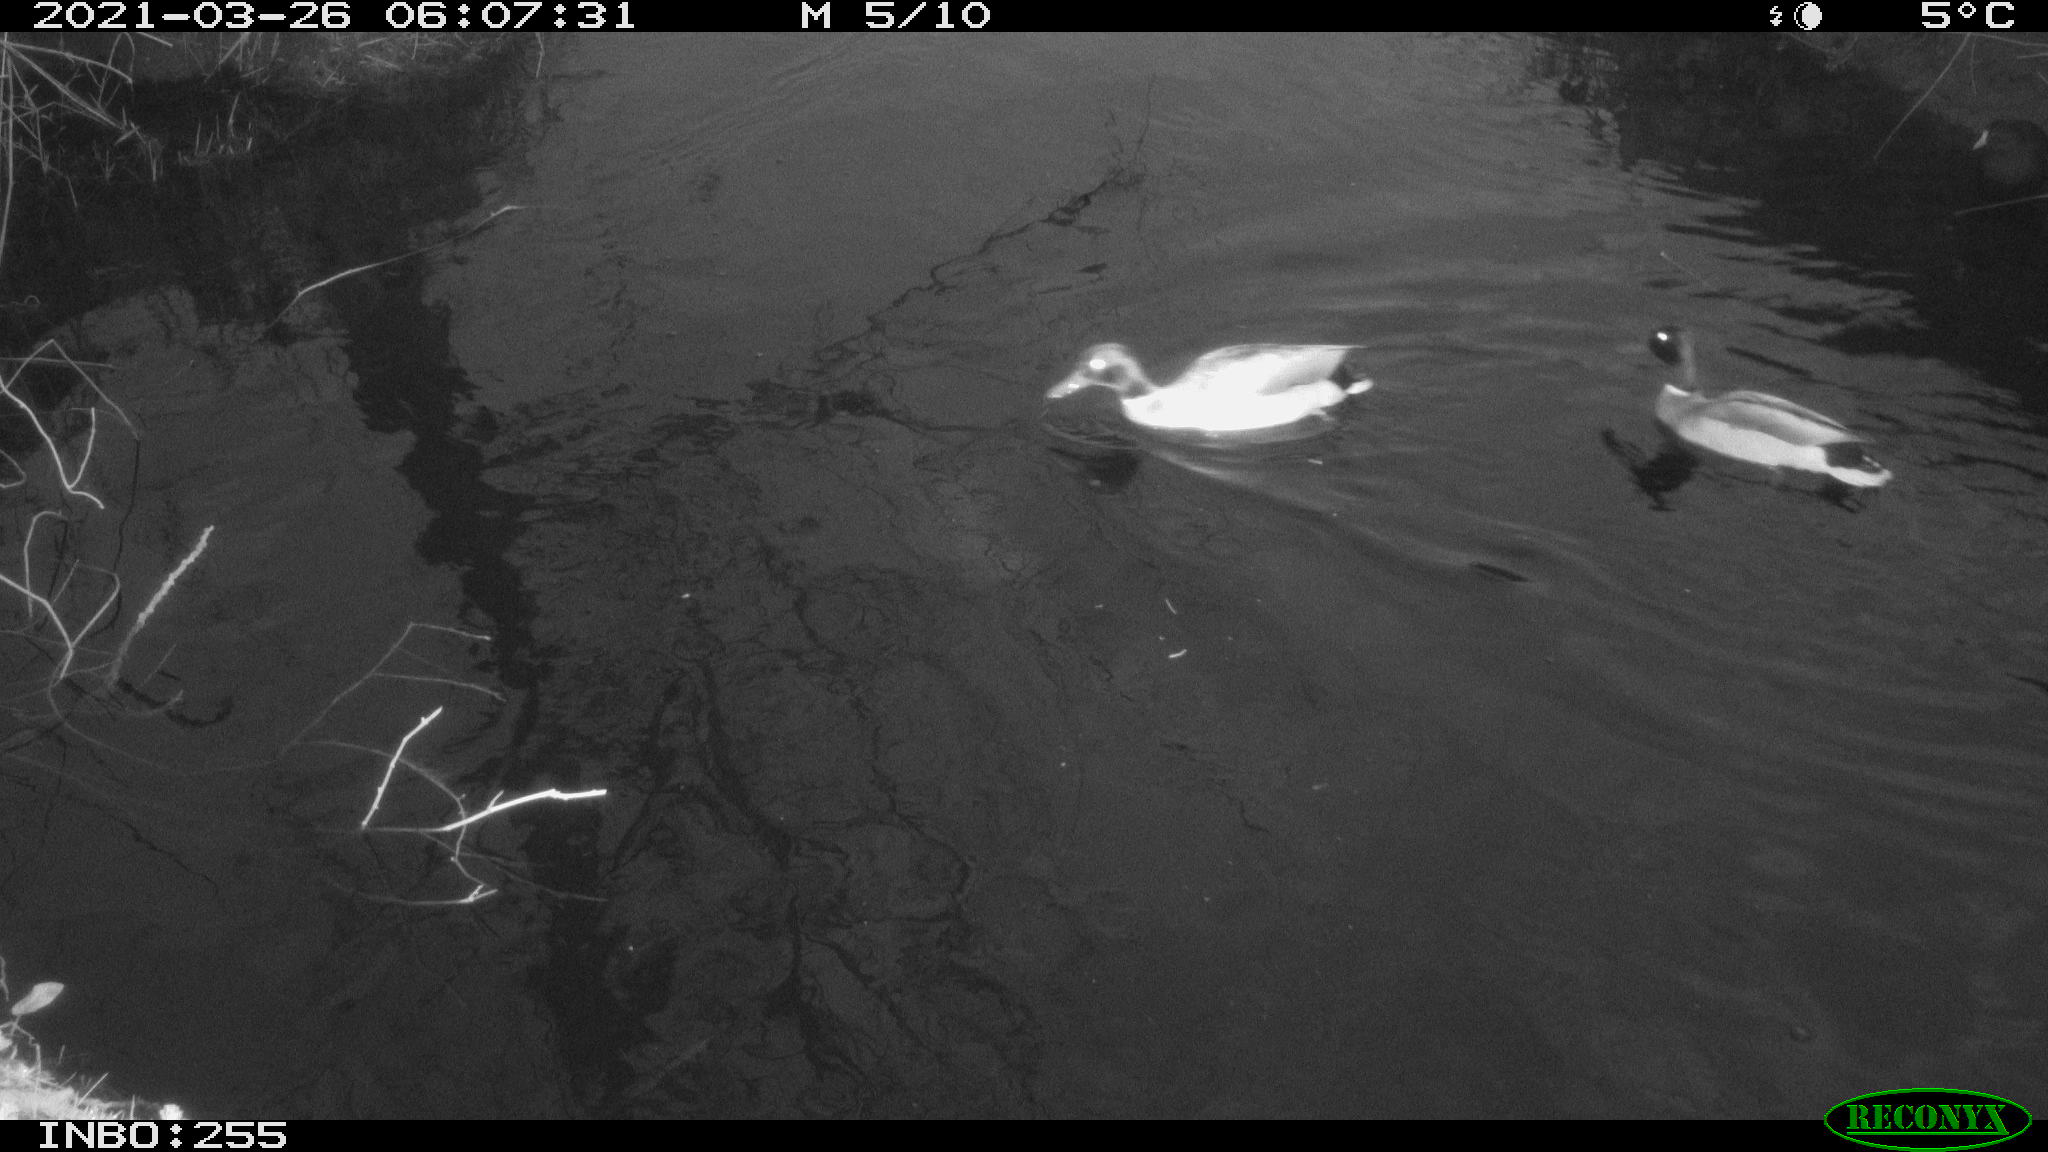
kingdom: Animalia
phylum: Chordata
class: Aves
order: Gruiformes
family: Rallidae
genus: Gallinula
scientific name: Gallinula chloropus
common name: Common moorhen
